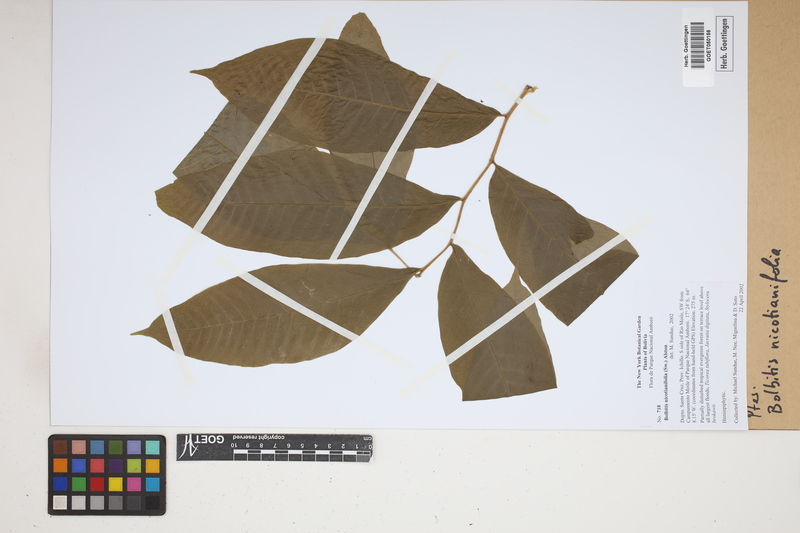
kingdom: Plantae
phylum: Tracheophyta
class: Polypodiopsida
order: Polypodiales
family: Dryopteridaceae
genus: Mickelia
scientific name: Mickelia nicotianifolia
